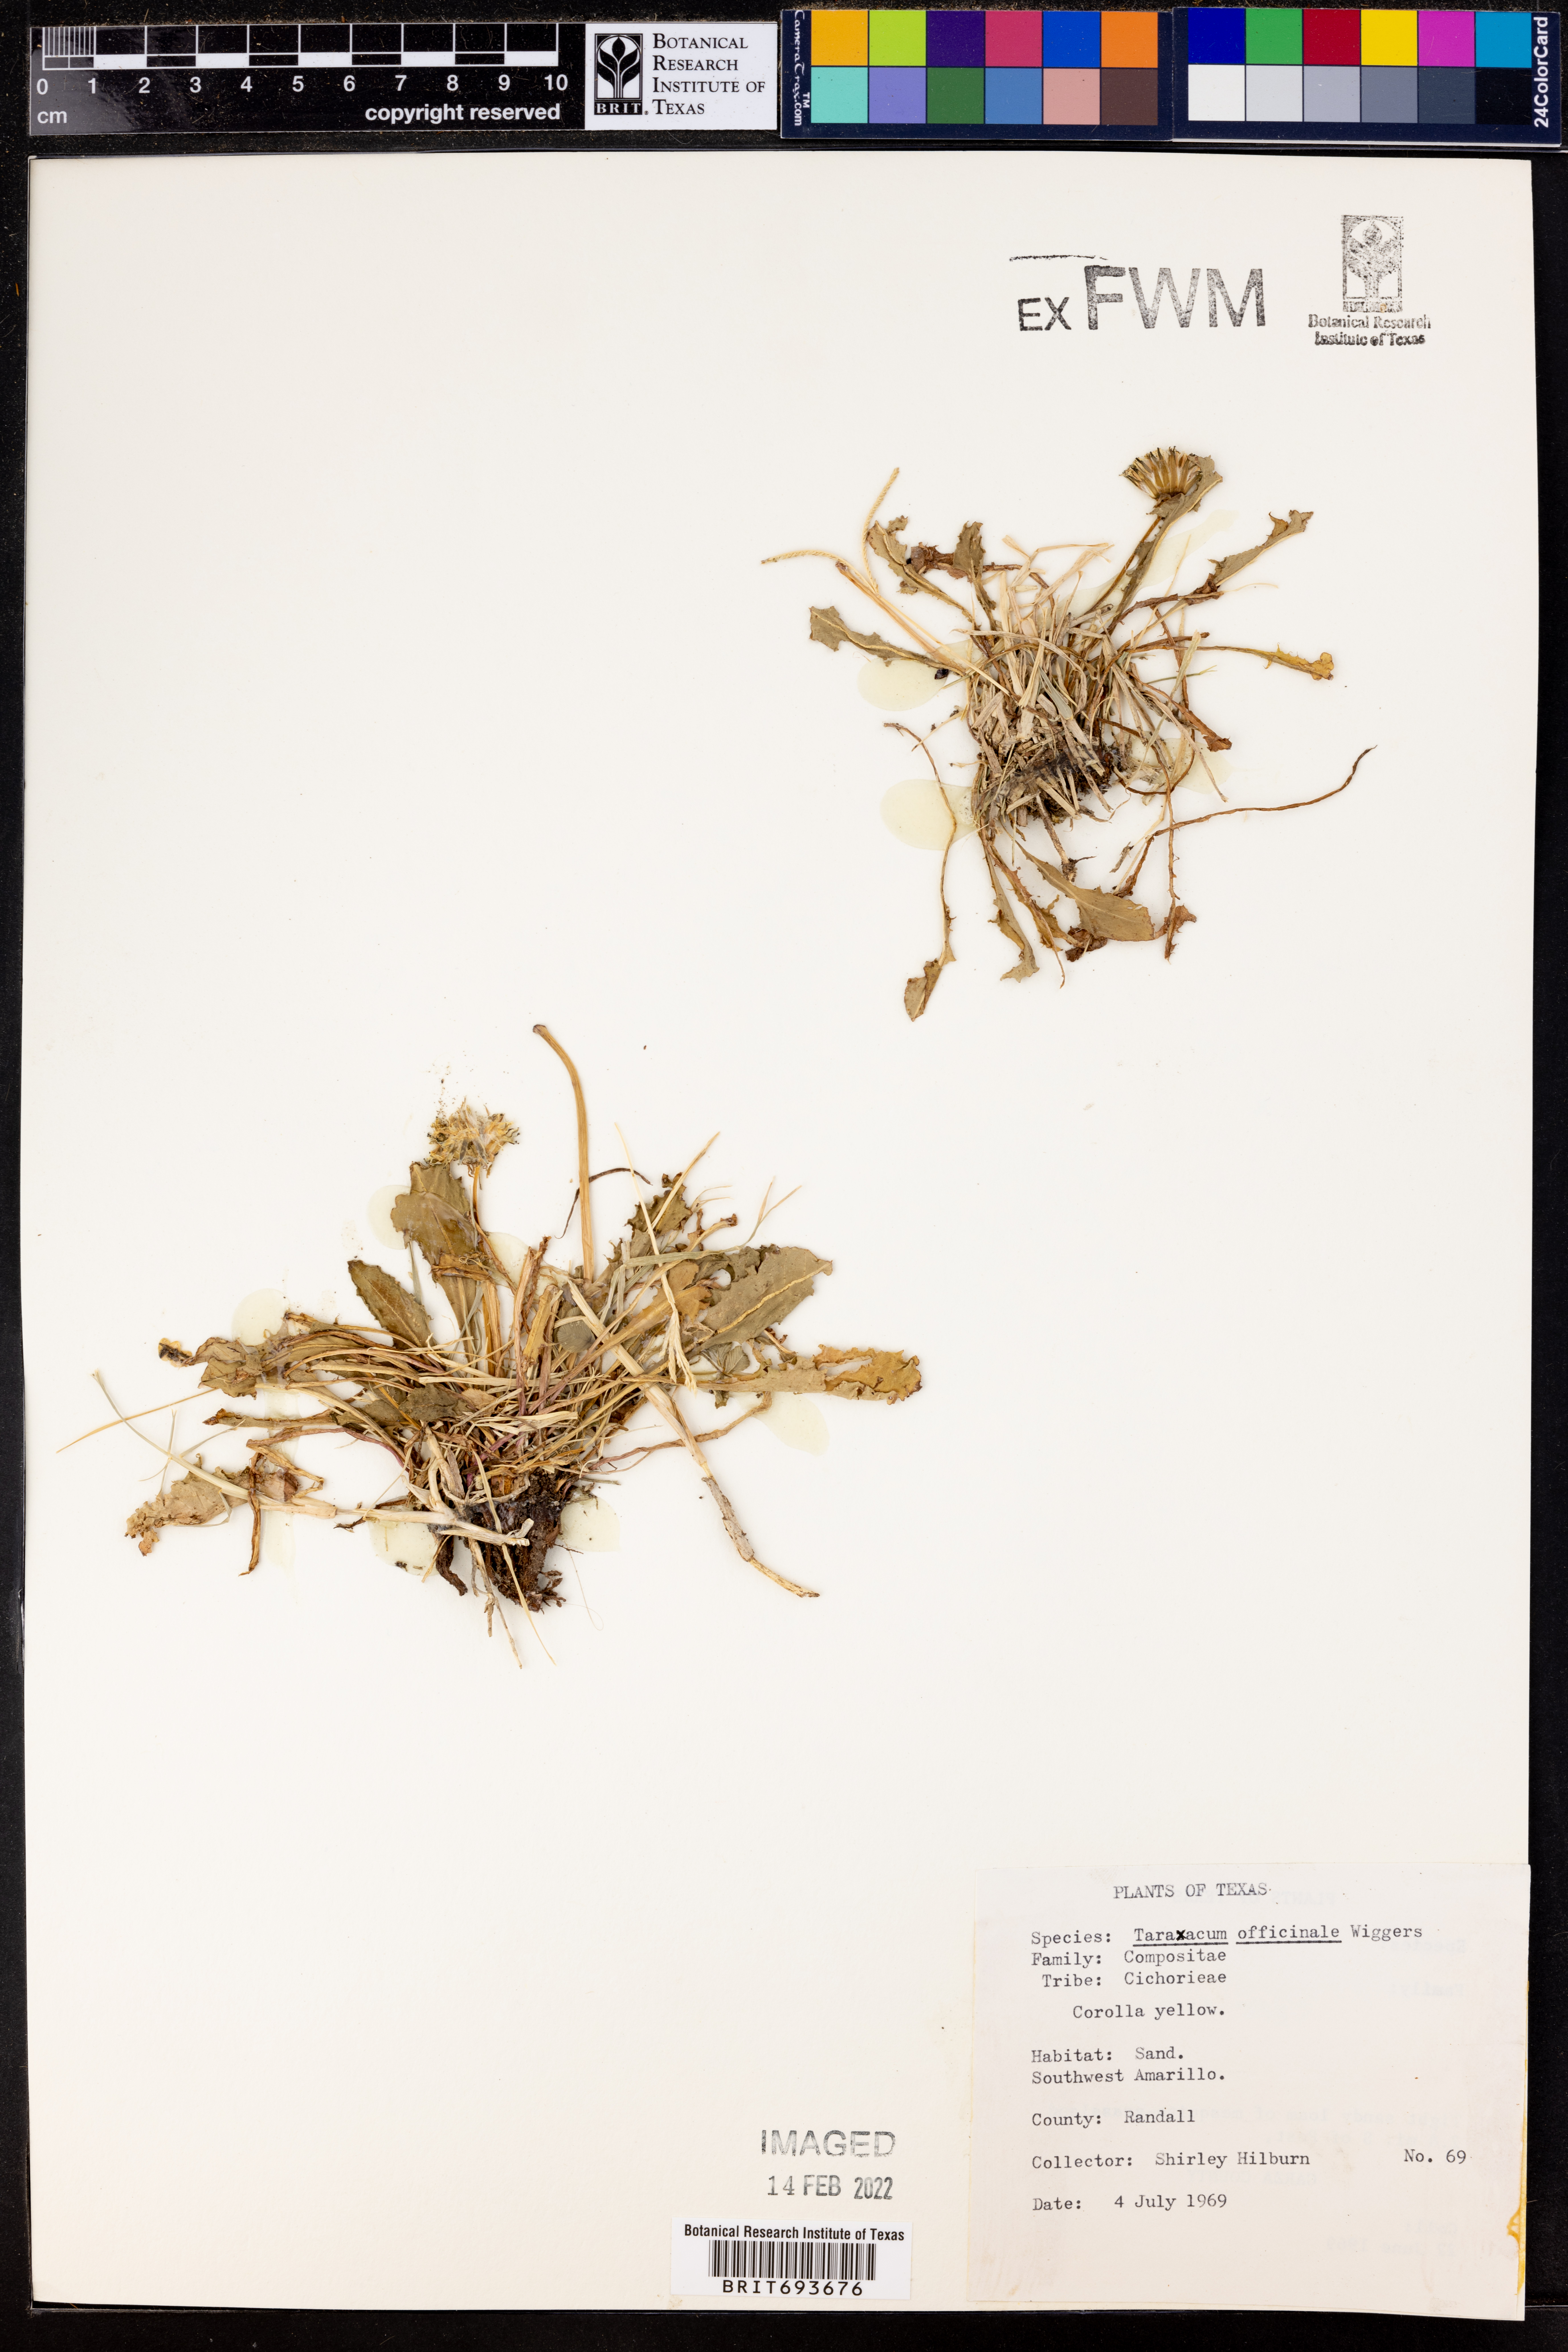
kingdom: Plantae
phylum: Tracheophyta
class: Magnoliopsida
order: Asterales
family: Asteraceae
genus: Taraxacum
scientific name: Taraxacum officinale
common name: Common dandelion
